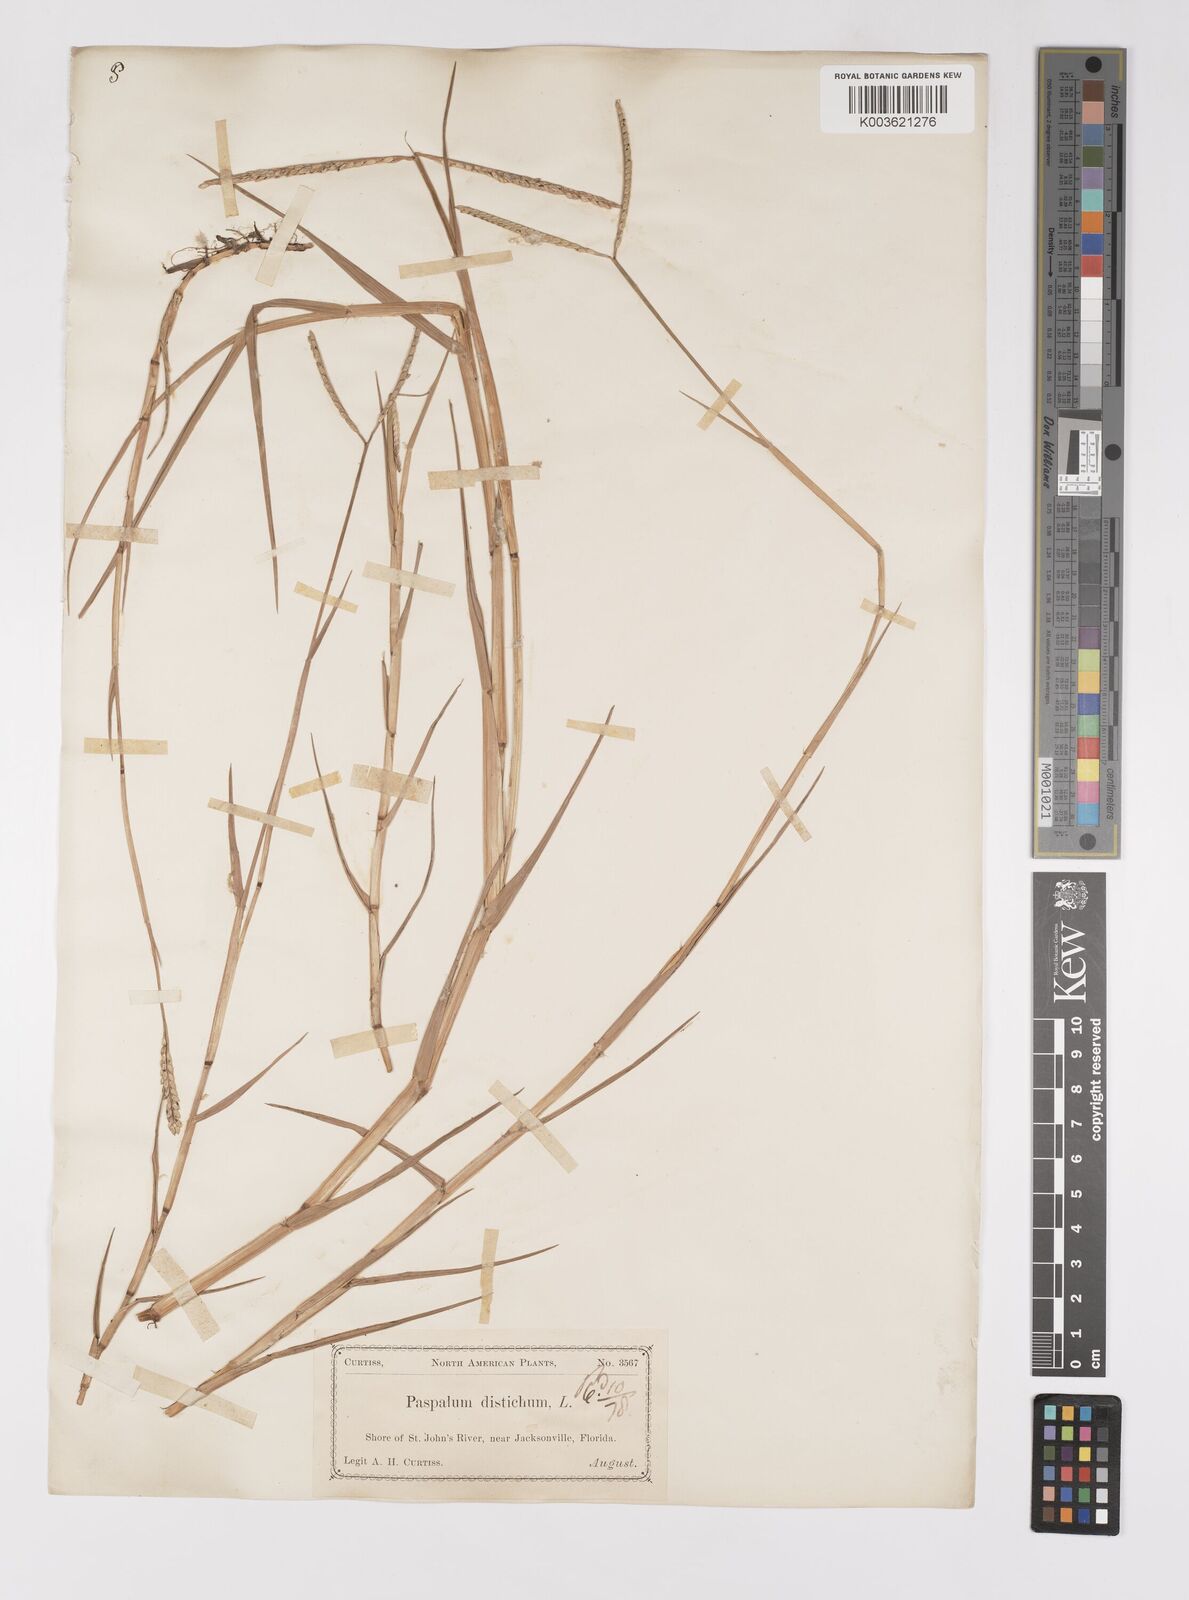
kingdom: Plantae
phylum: Tracheophyta
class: Liliopsida
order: Poales
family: Poaceae
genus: Paspalum
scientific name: Paspalum distichum
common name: Knotgrass
